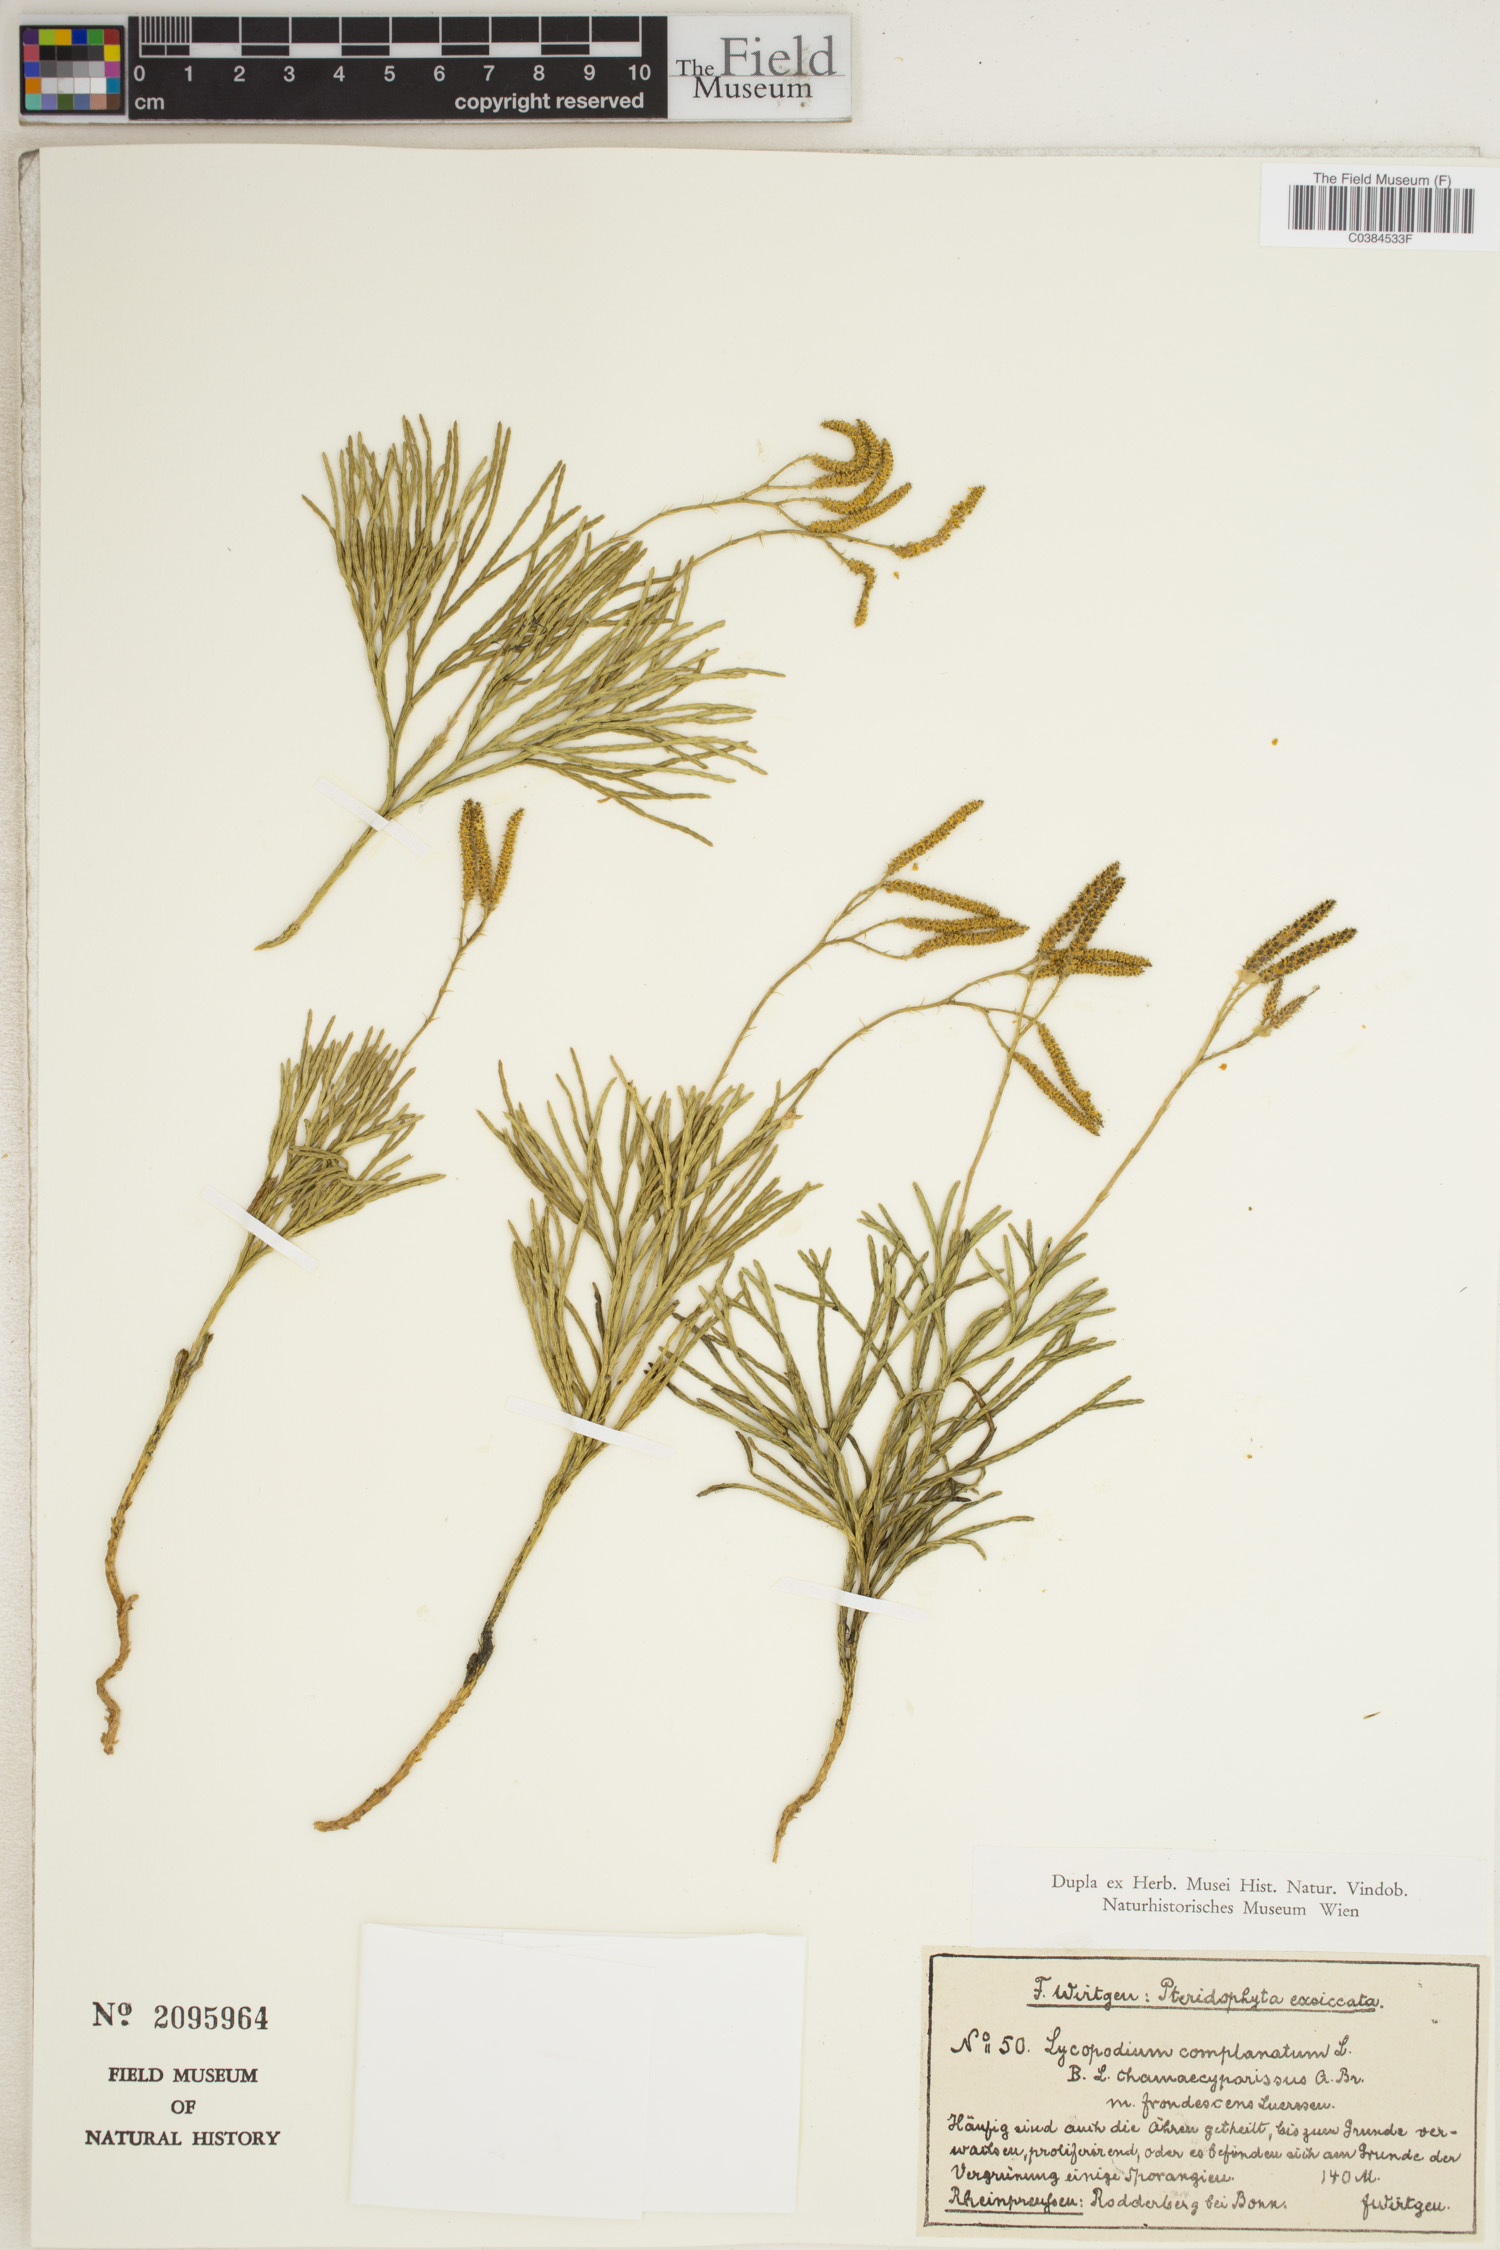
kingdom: Plantae
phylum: Tracheophyta
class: Lycopodiopsida
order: Lycopodiales
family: Lycopodiaceae
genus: Diphasiastrum
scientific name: Diphasiastrum complanatum
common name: Northern running-pine
